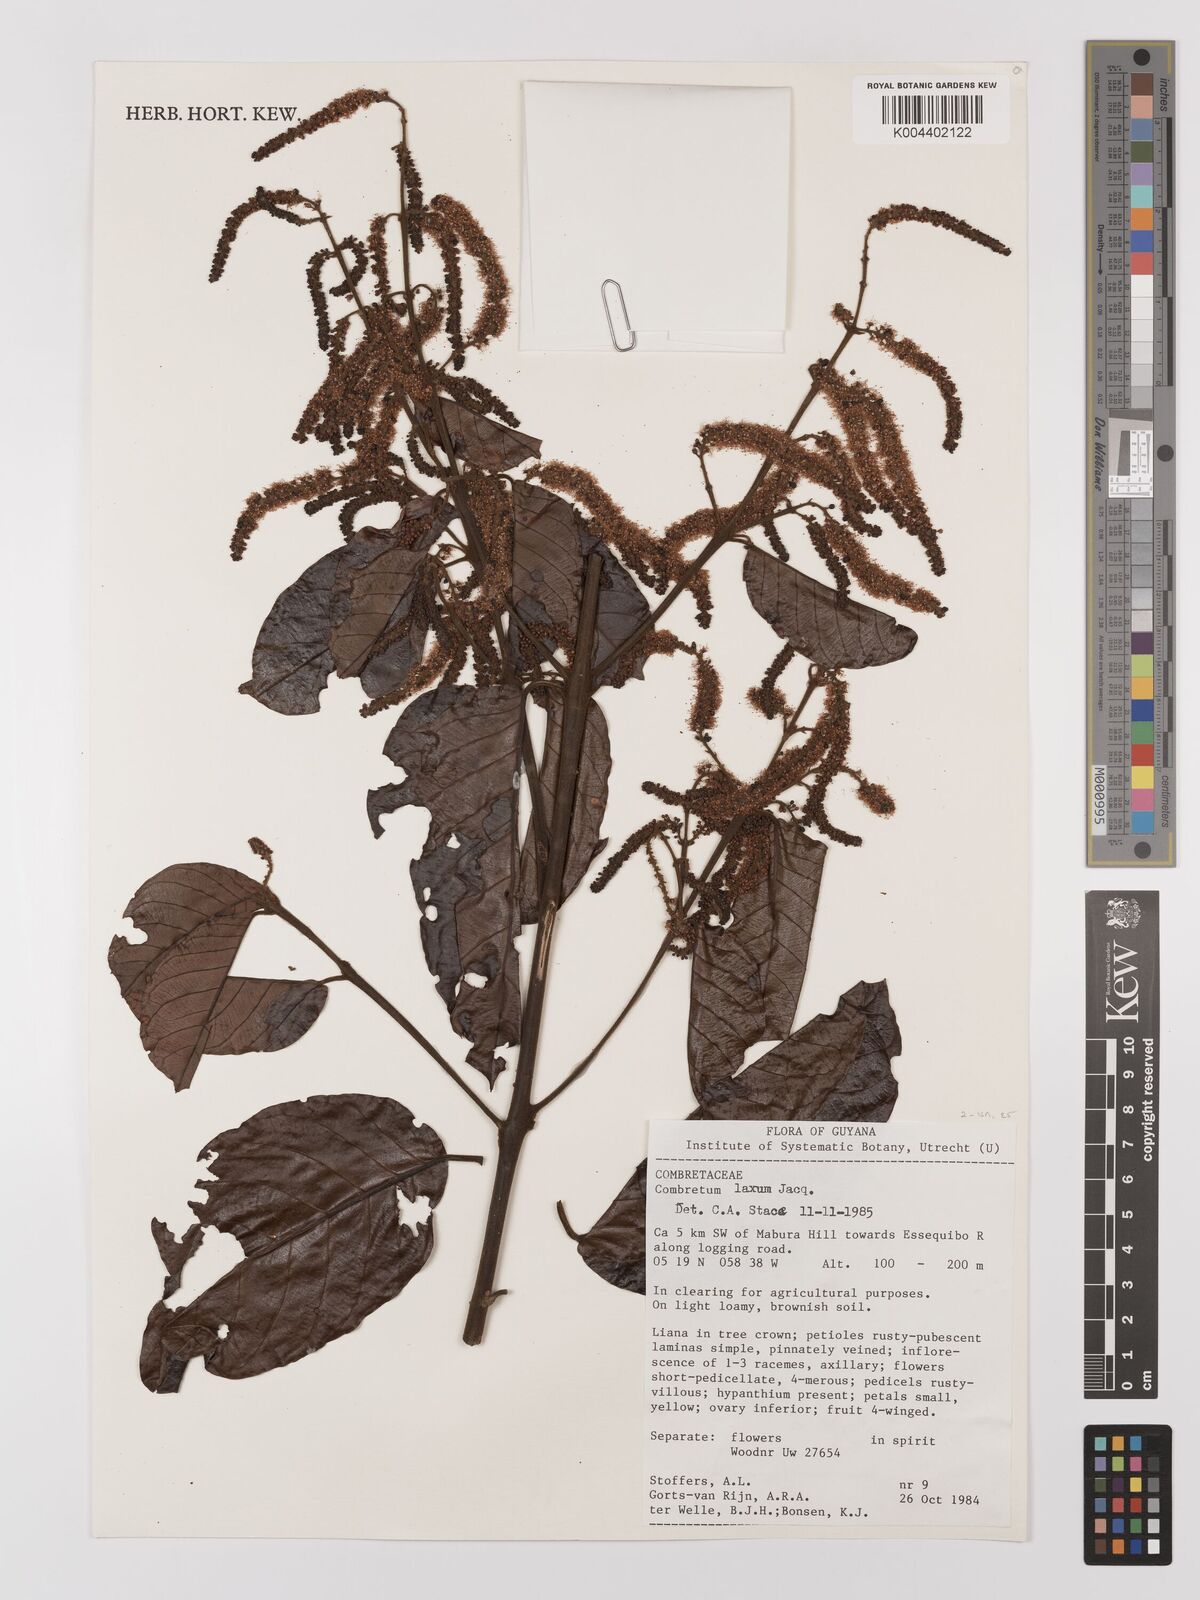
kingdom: Plantae
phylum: Tracheophyta
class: Magnoliopsida
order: Myrtales
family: Combretaceae
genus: Combretum
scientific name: Combretum
